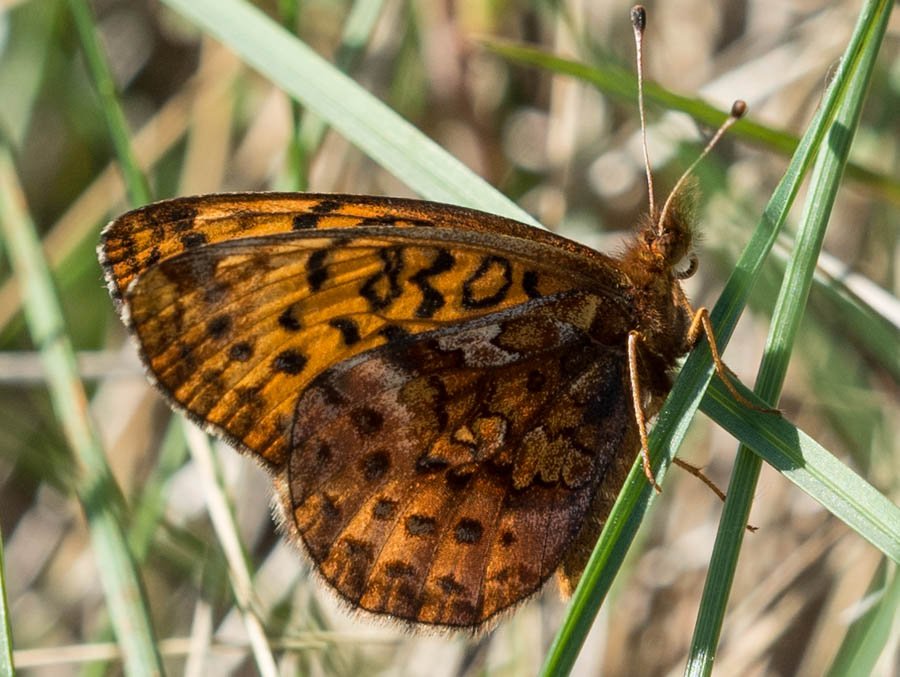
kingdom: Animalia
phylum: Arthropoda
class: Insecta
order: Lepidoptera
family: Nymphalidae
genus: Clossiana
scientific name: Clossiana toddi
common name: Meadow Fritillary
